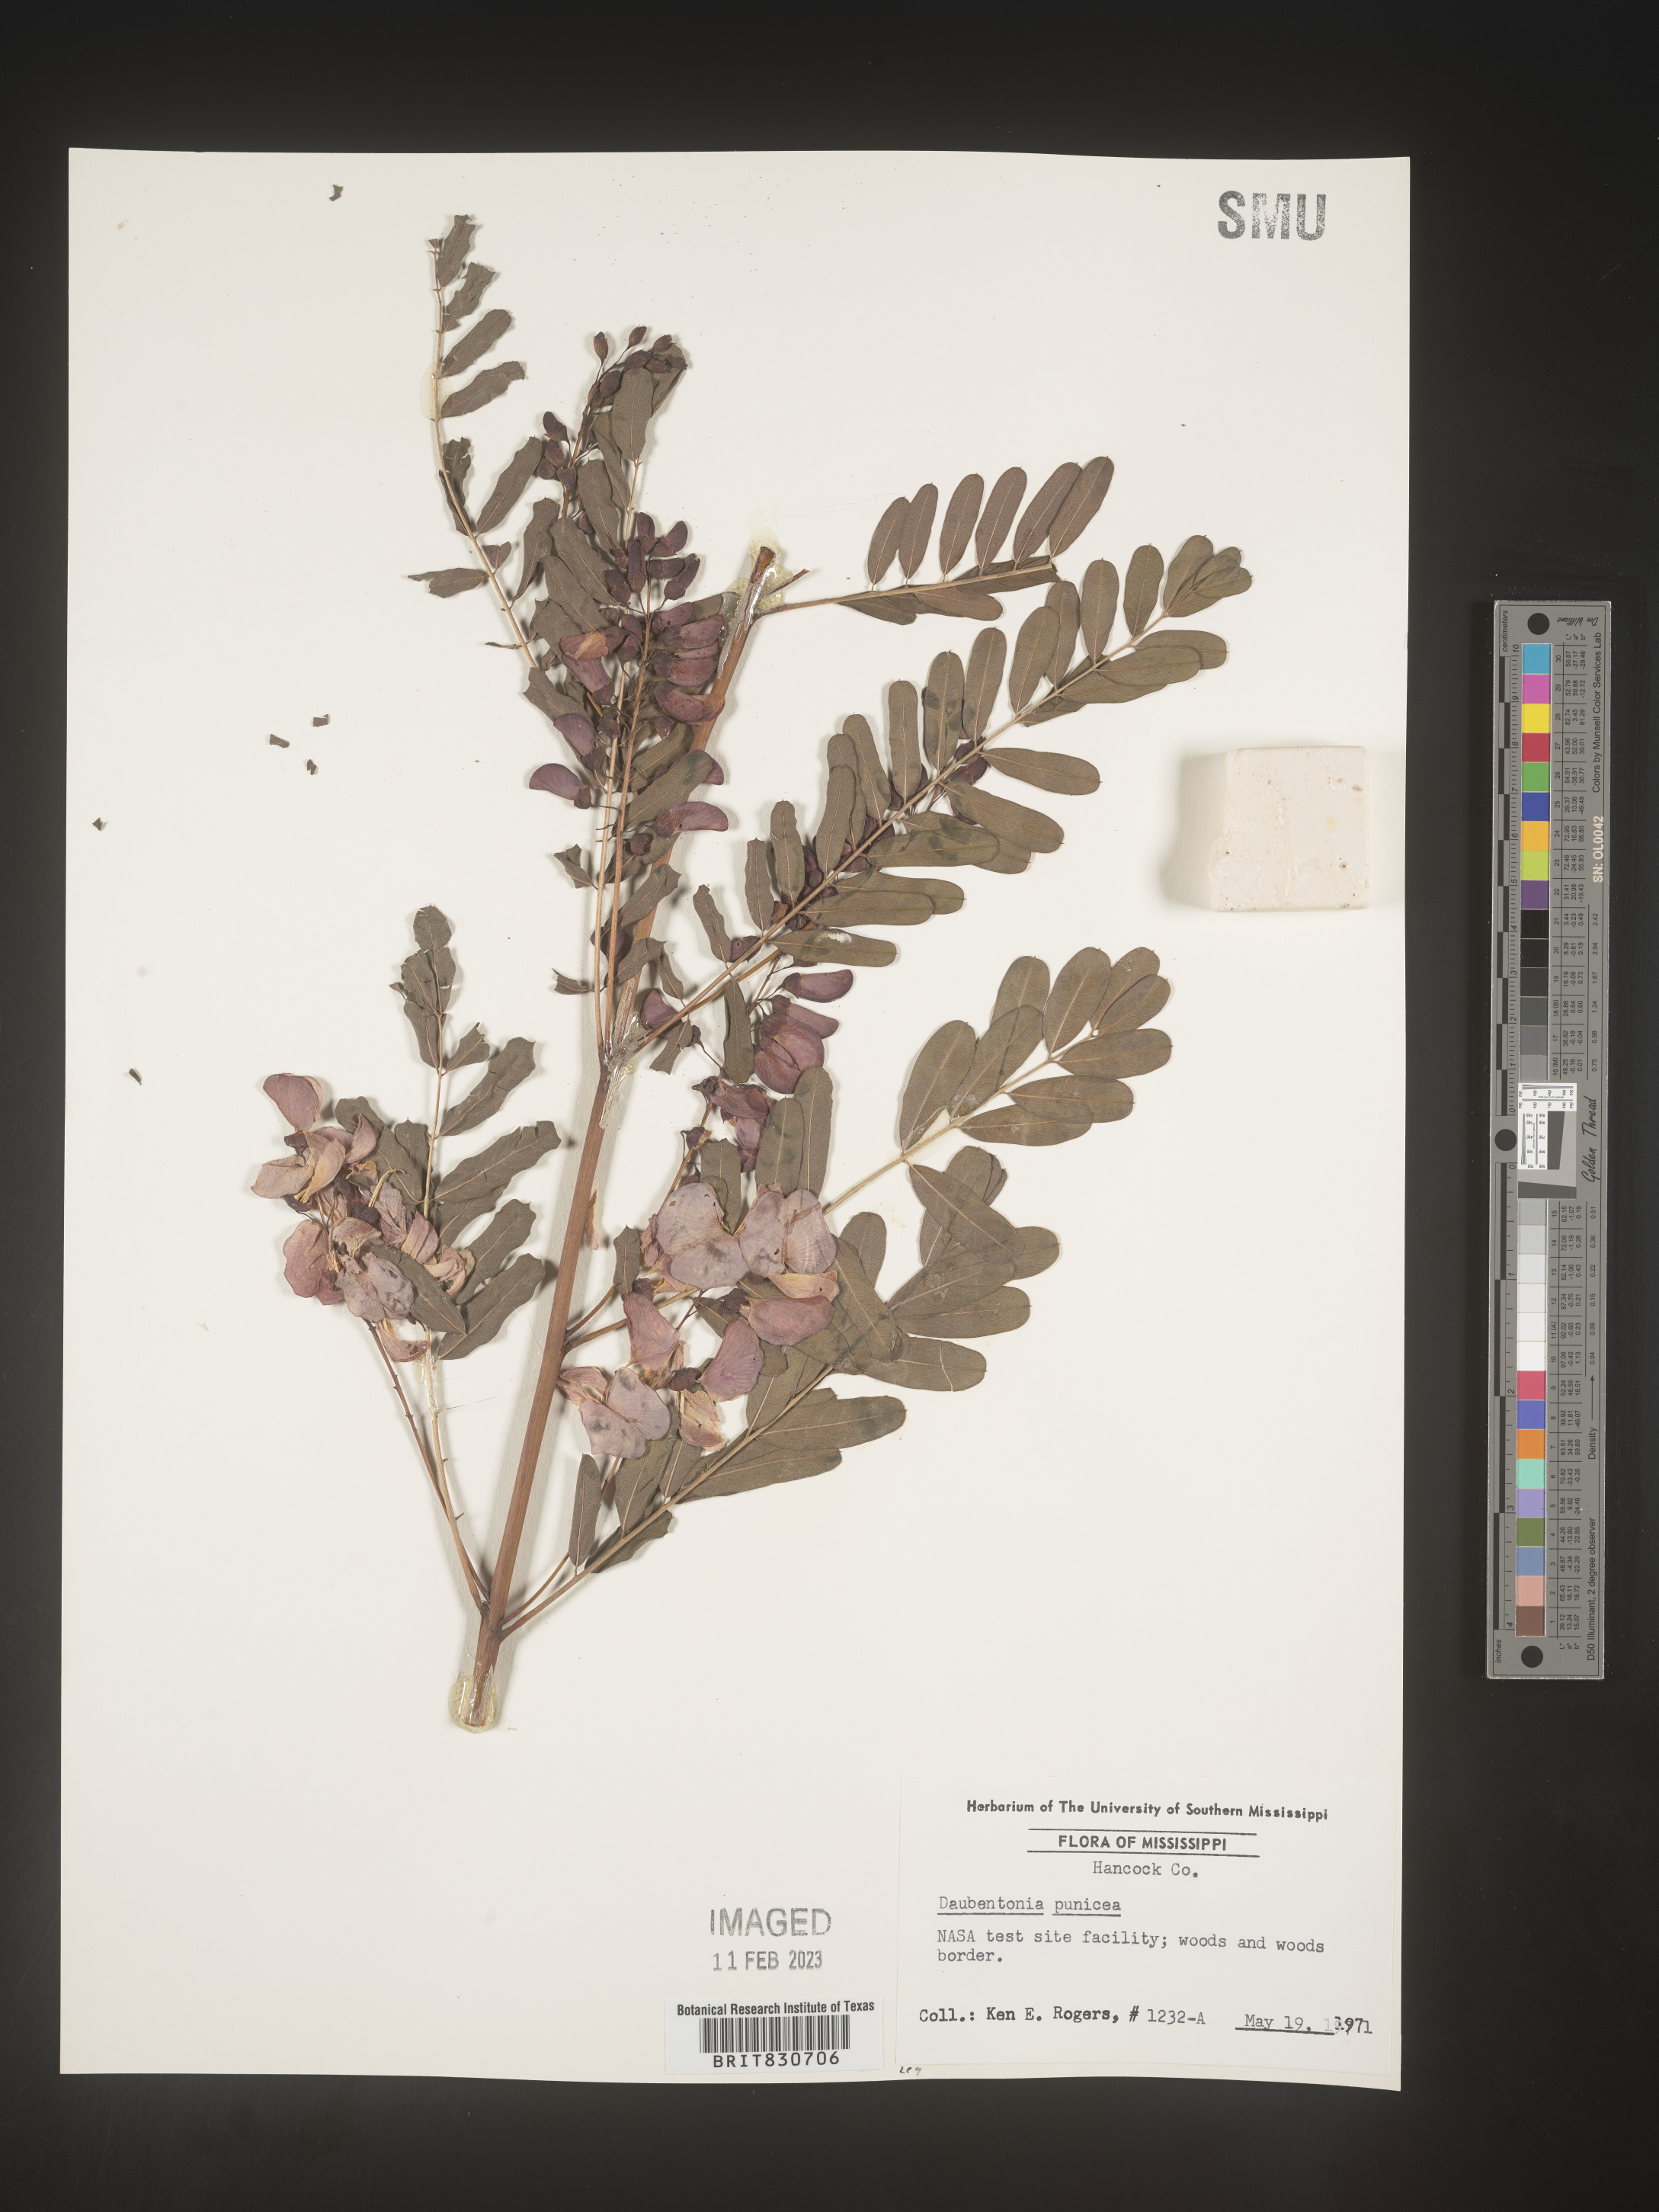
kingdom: Plantae
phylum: Tracheophyta
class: Magnoliopsida
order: Fabales
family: Fabaceae
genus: Sesbania
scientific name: Sesbania punicea
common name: Rattlebox
